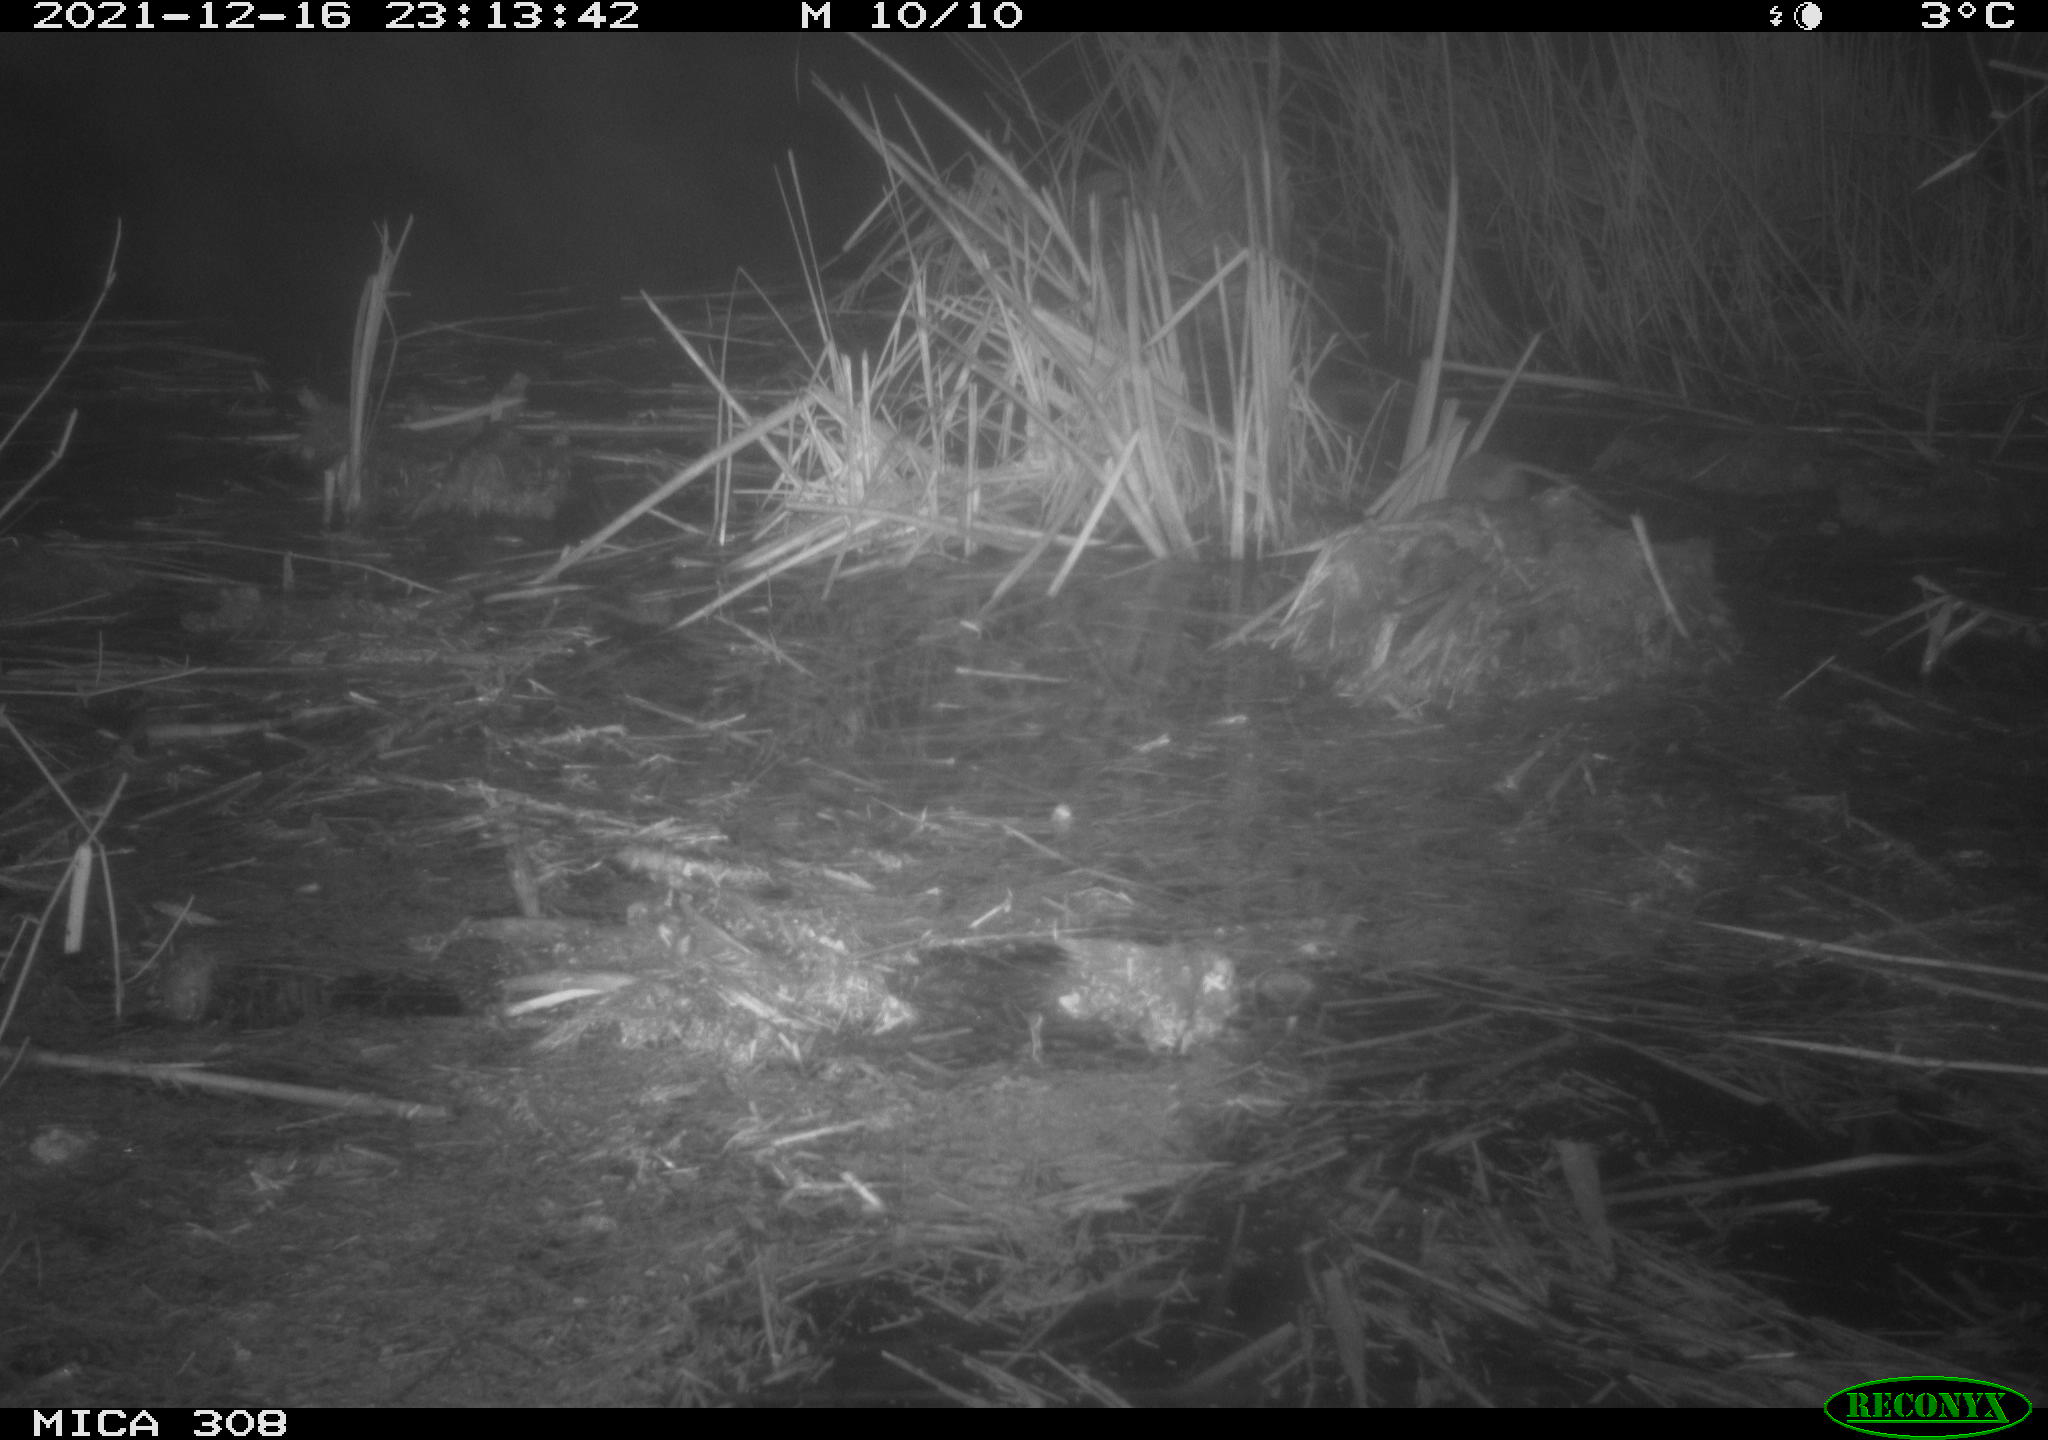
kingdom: Animalia
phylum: Chordata
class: Mammalia
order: Rodentia
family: Muridae
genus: Rattus
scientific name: Rattus norvegicus
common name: Brown rat
